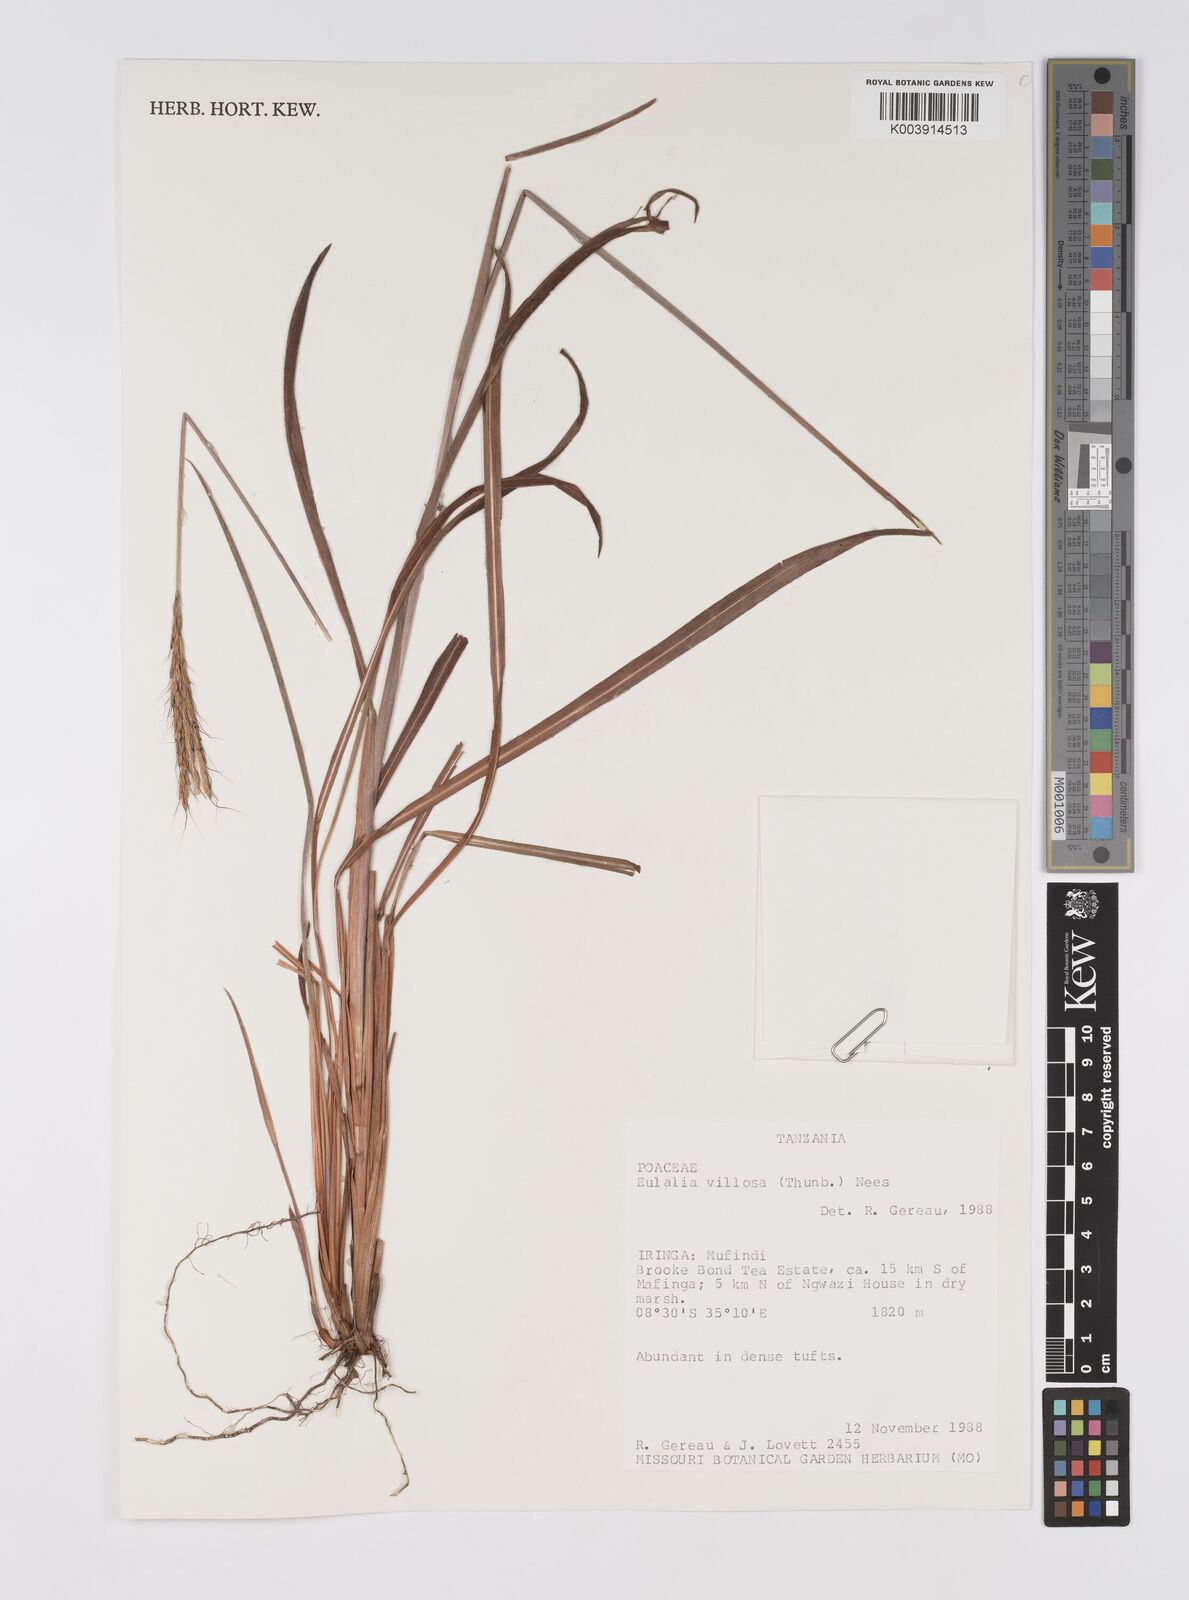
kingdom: Plantae
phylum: Tracheophyta
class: Liliopsida
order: Poales
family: Poaceae
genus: Eulalia
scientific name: Eulalia villosa
